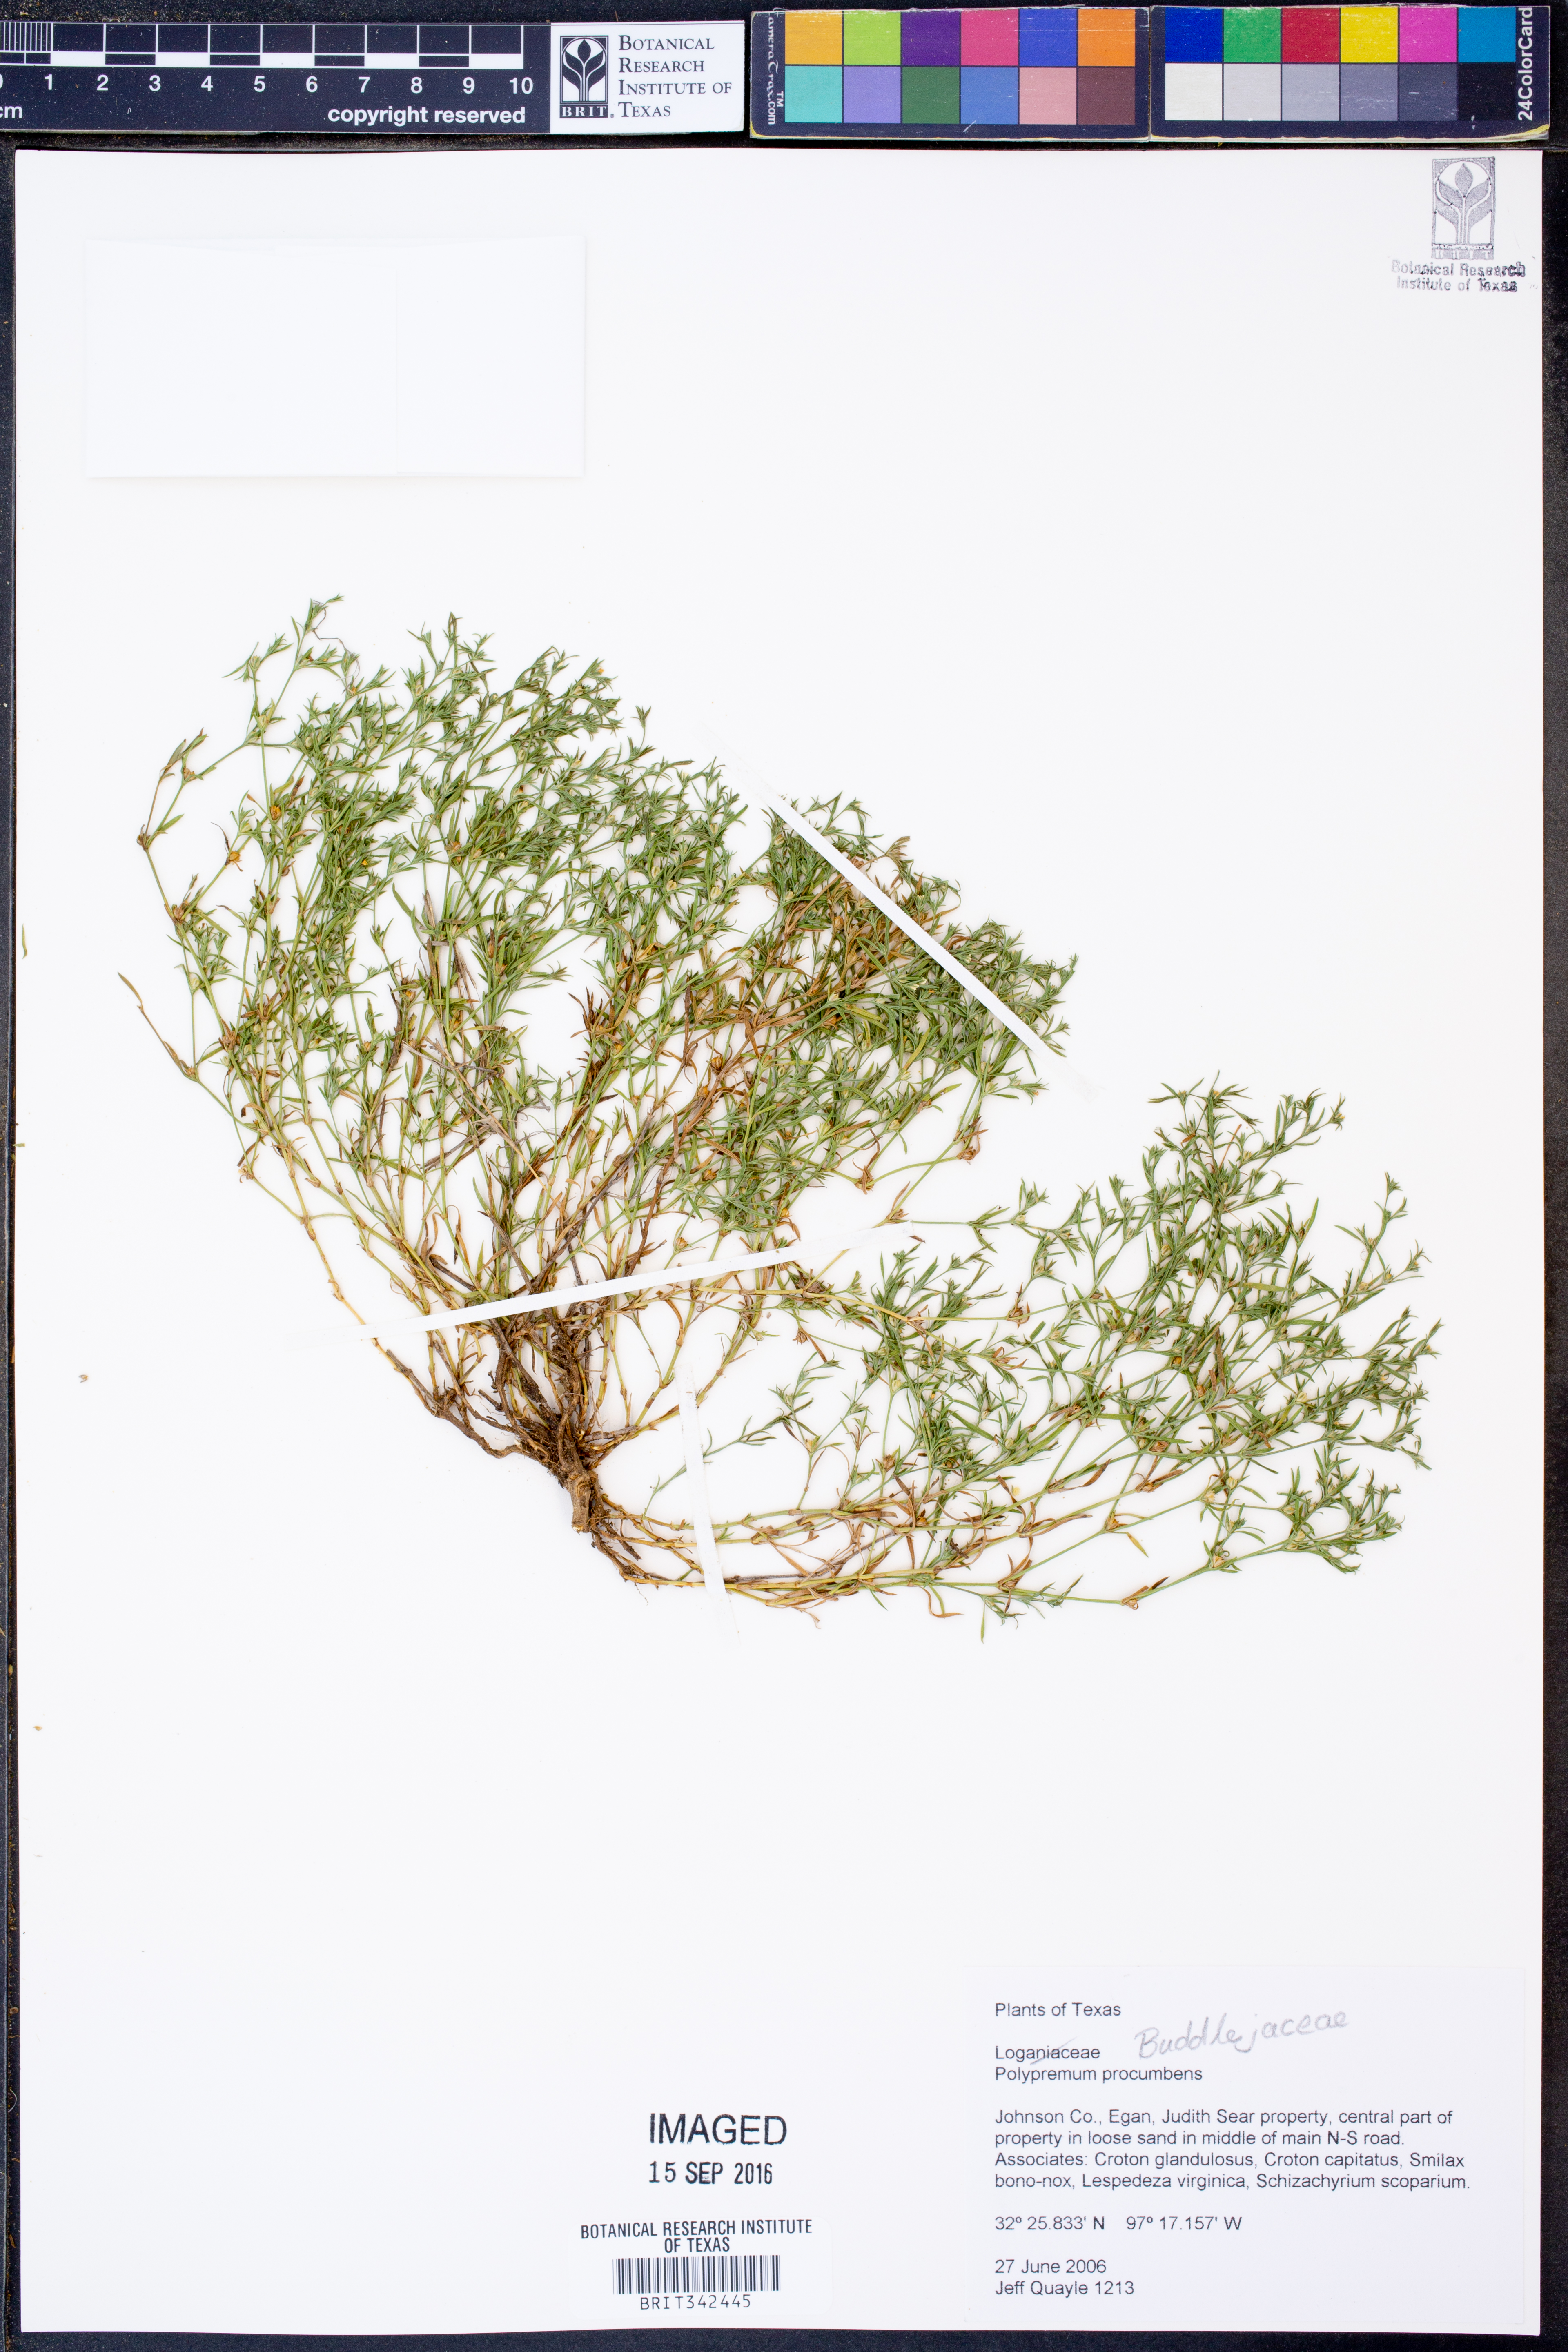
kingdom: Plantae
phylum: Tracheophyta
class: Magnoliopsida
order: Lamiales
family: Tetrachondraceae
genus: Polypremum
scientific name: Polypremum procumbens
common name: Juniper-leaf
